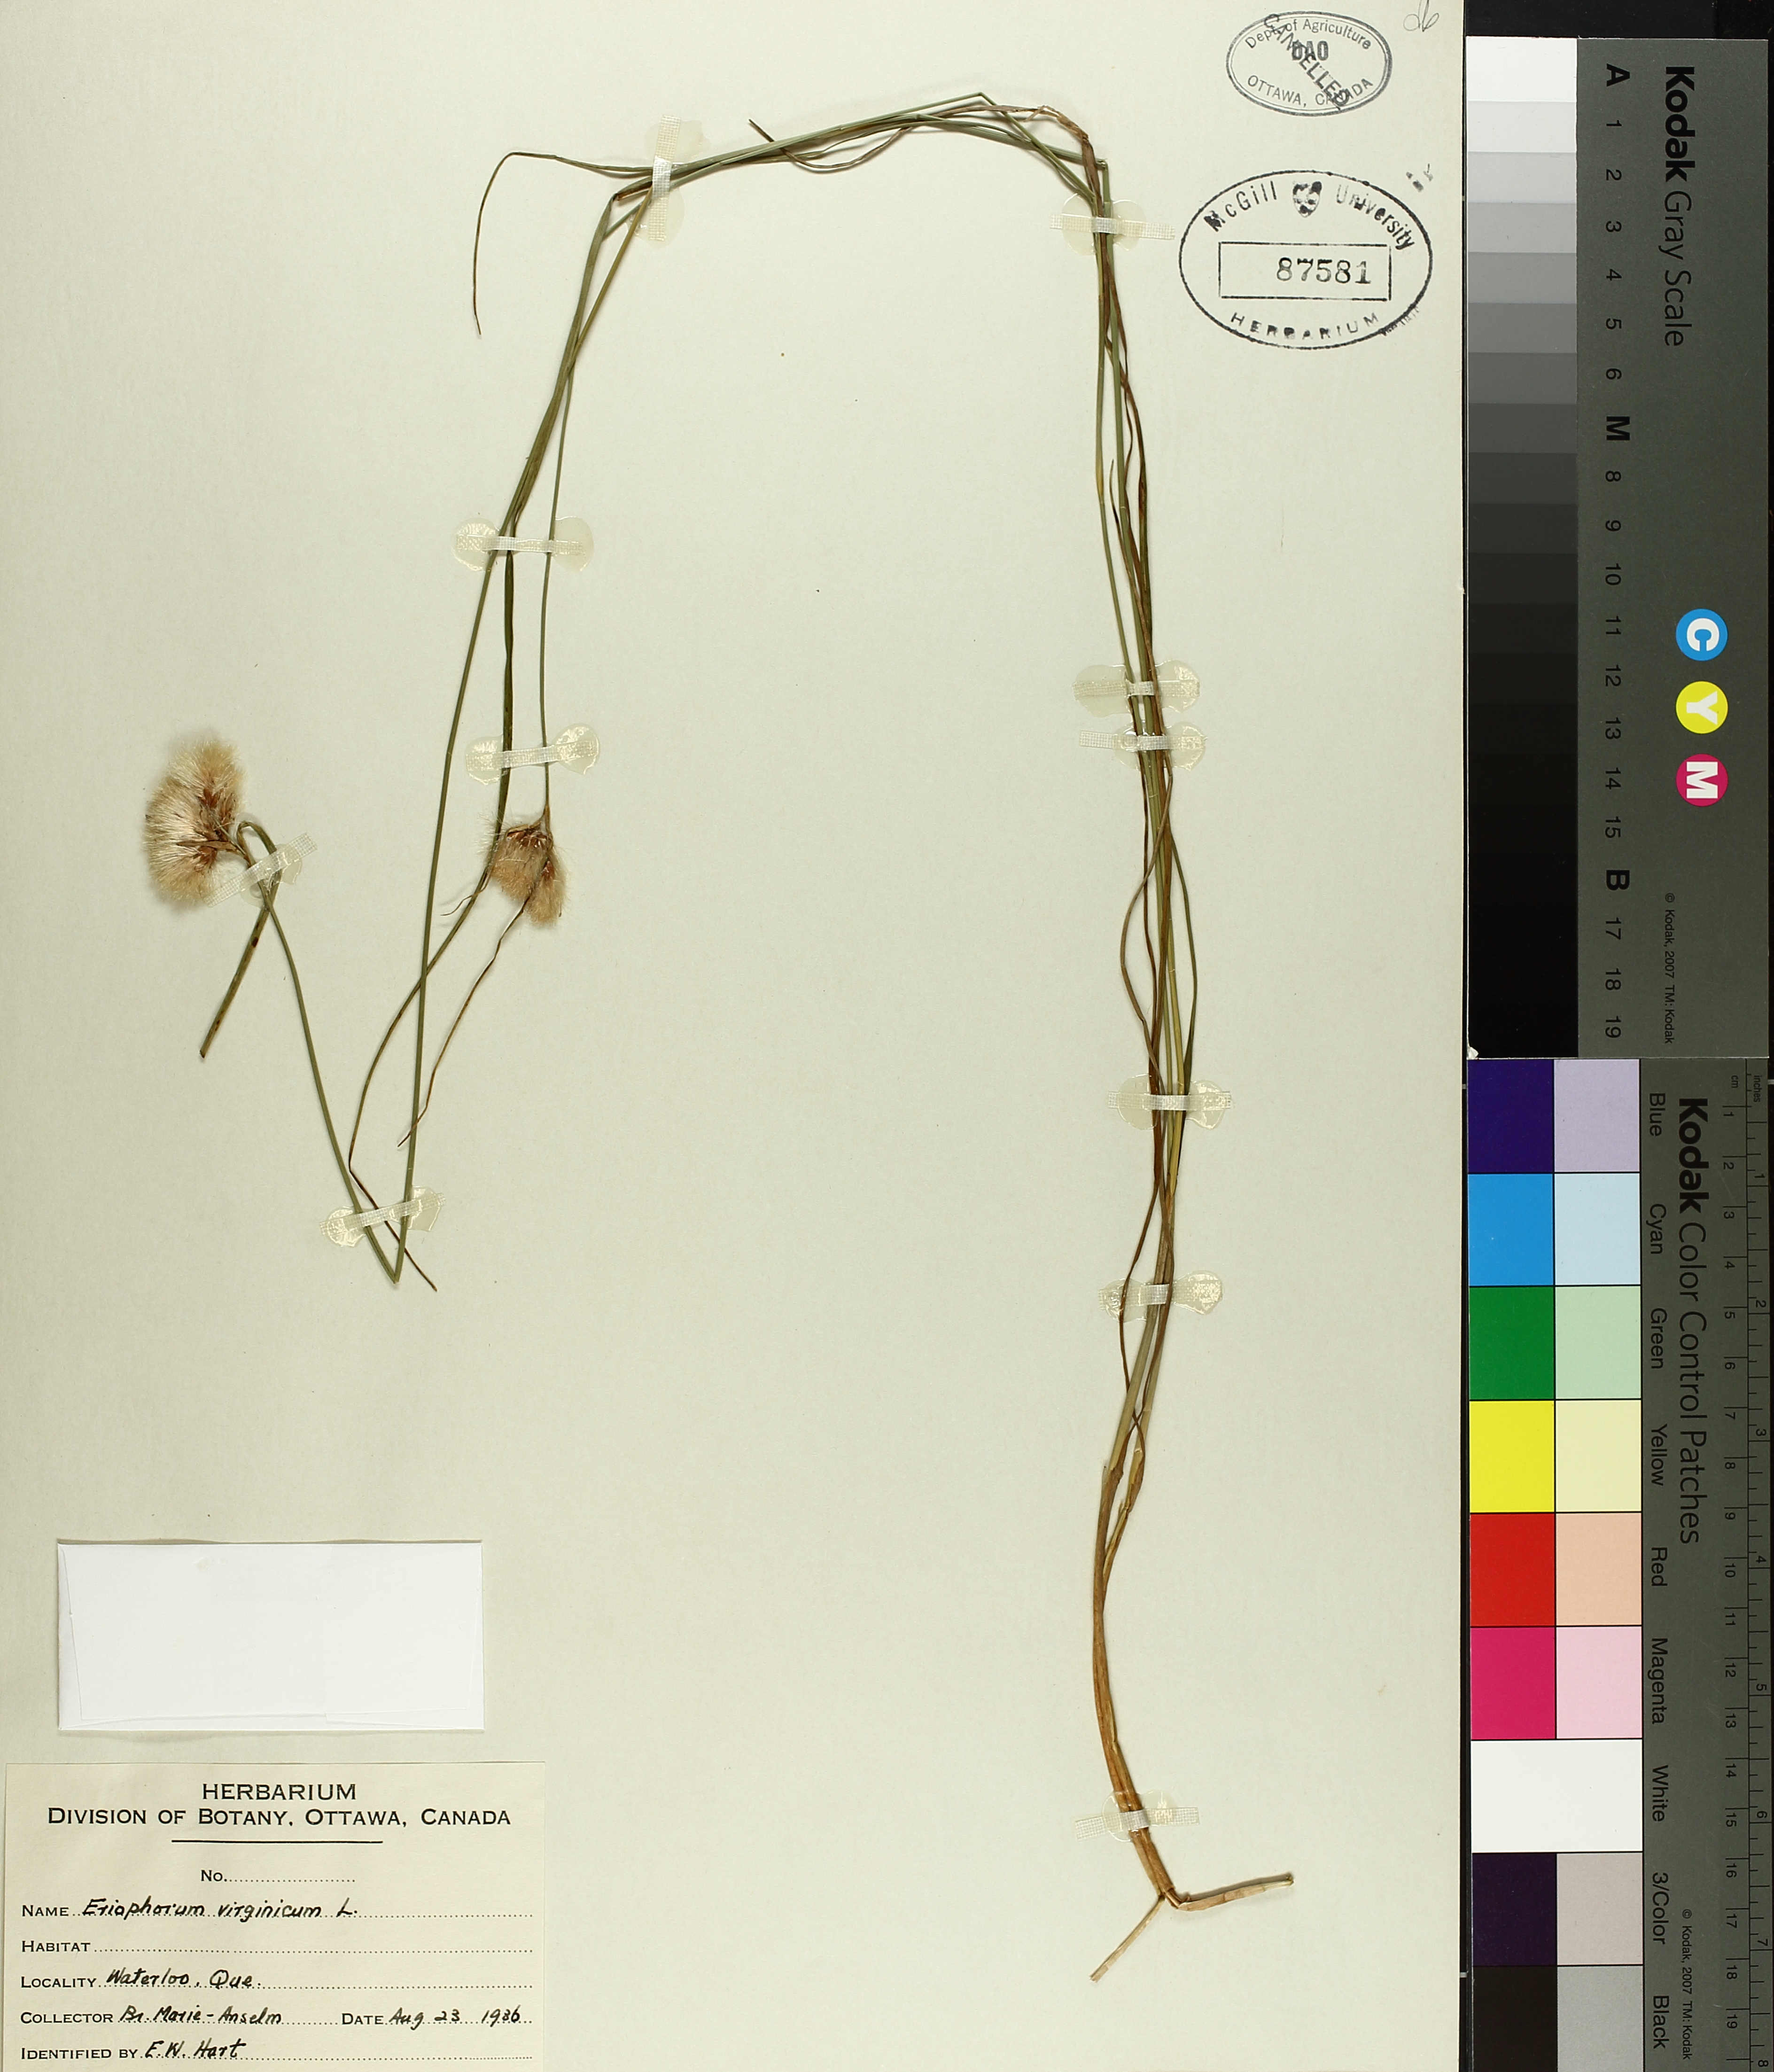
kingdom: Plantae
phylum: Tracheophyta
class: Liliopsida
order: Poales
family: Cyperaceae
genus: Eriophorum
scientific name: Eriophorum virginicum
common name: Tawny cottongrass
